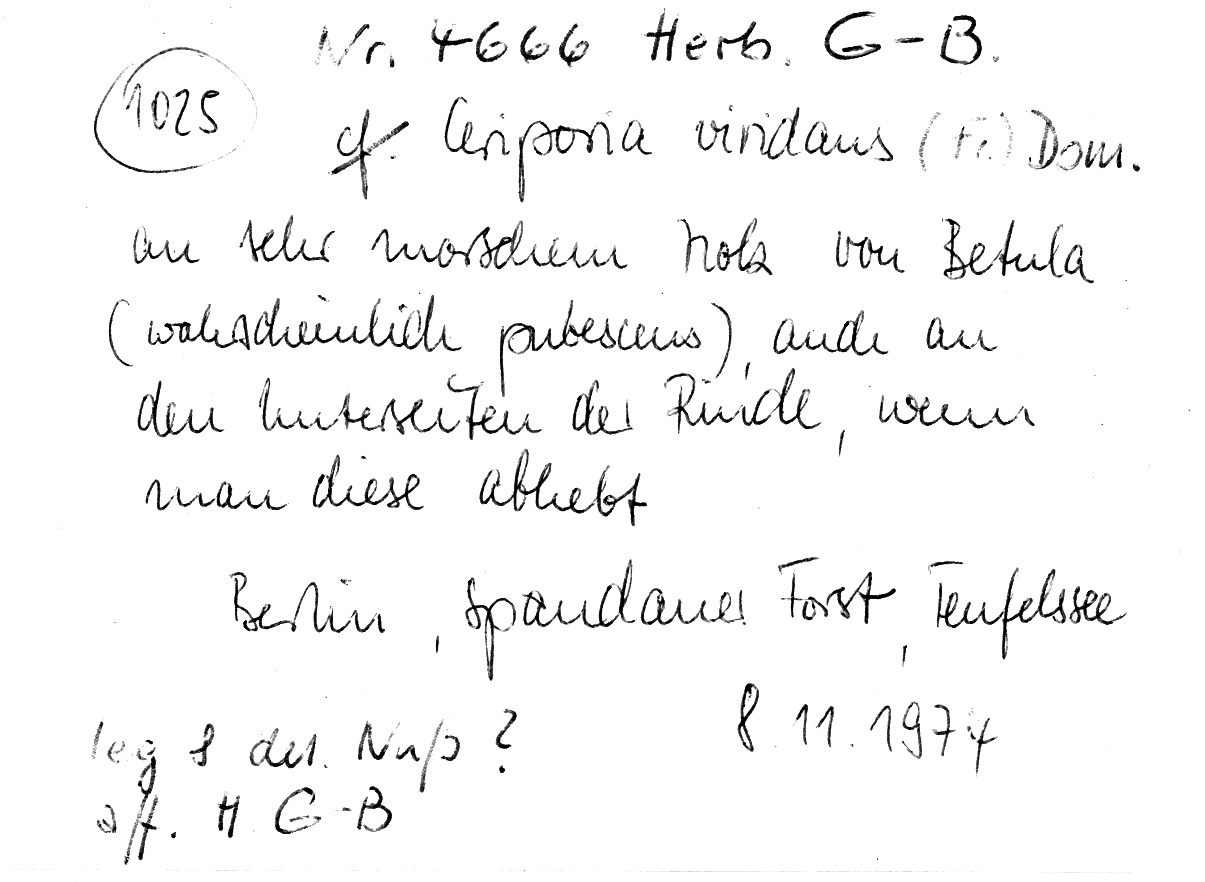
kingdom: Plantae
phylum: Tracheophyta
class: Magnoliopsida
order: Fagales
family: Betulaceae
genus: Betula
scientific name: Betula pubescens
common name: Downy birch
